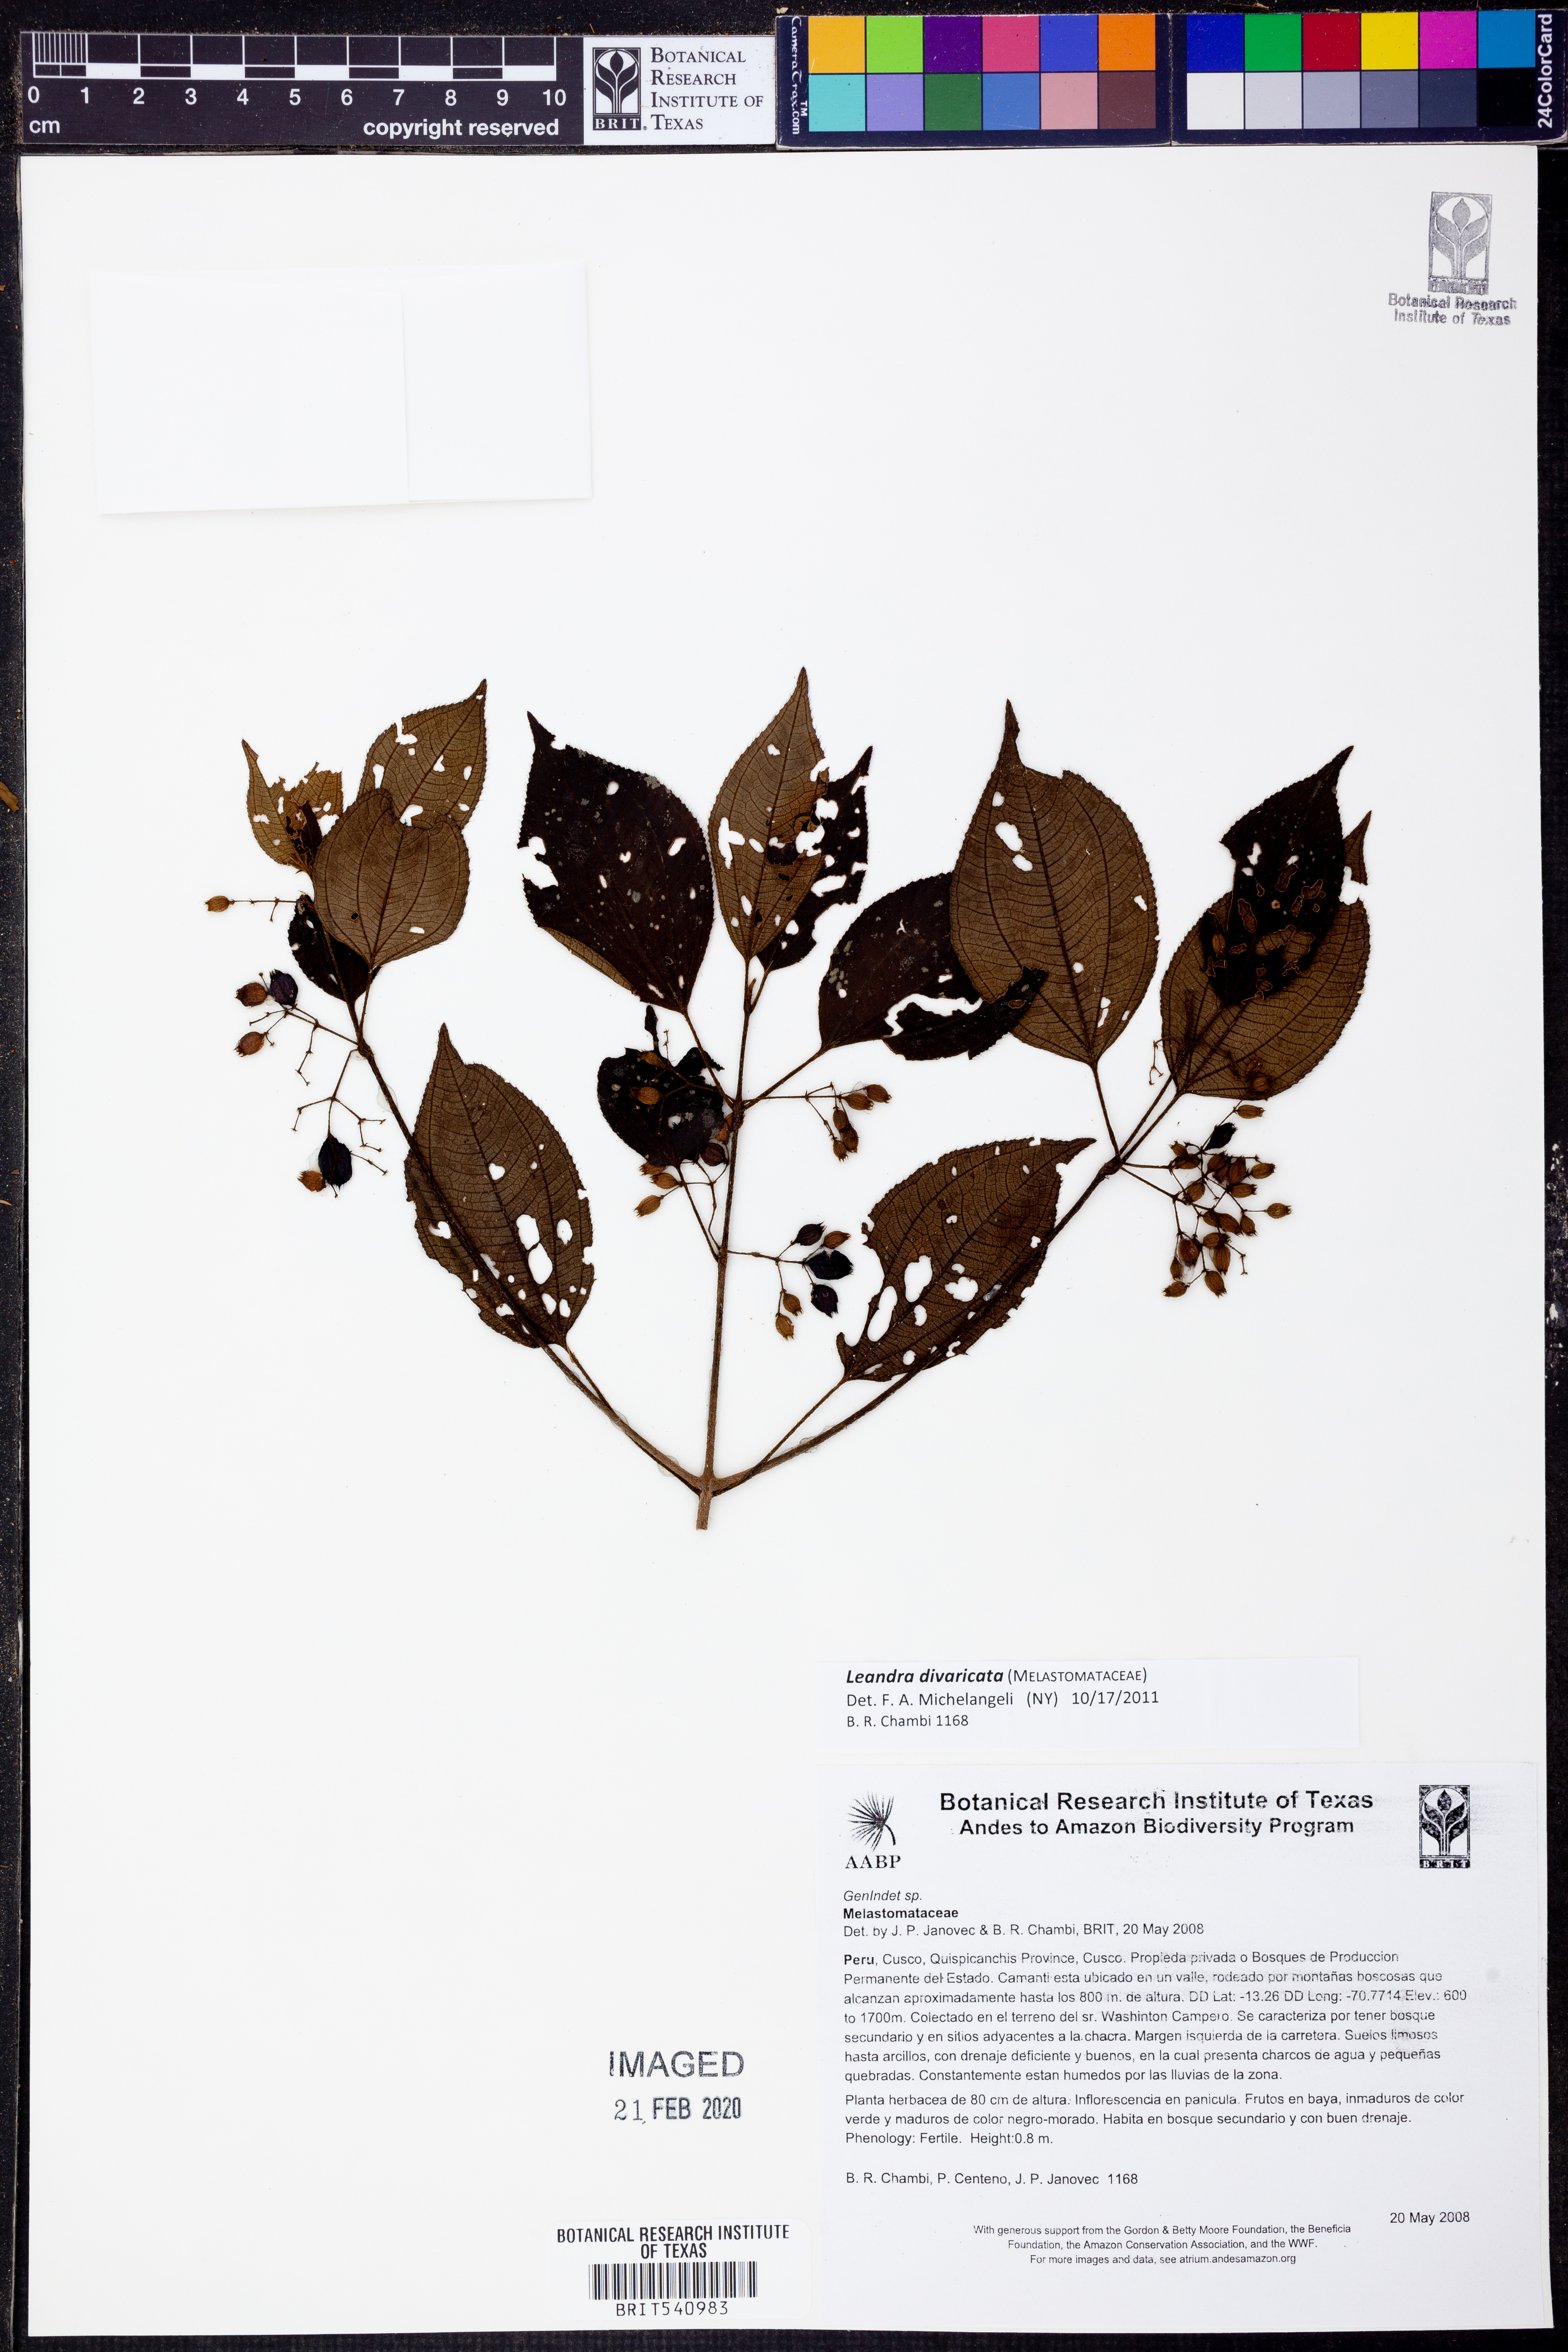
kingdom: Plantae
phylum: Tracheophyta
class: Magnoliopsida
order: Myrtales
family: Melastomataceae
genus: Miconia
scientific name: Miconia secundivaricata
